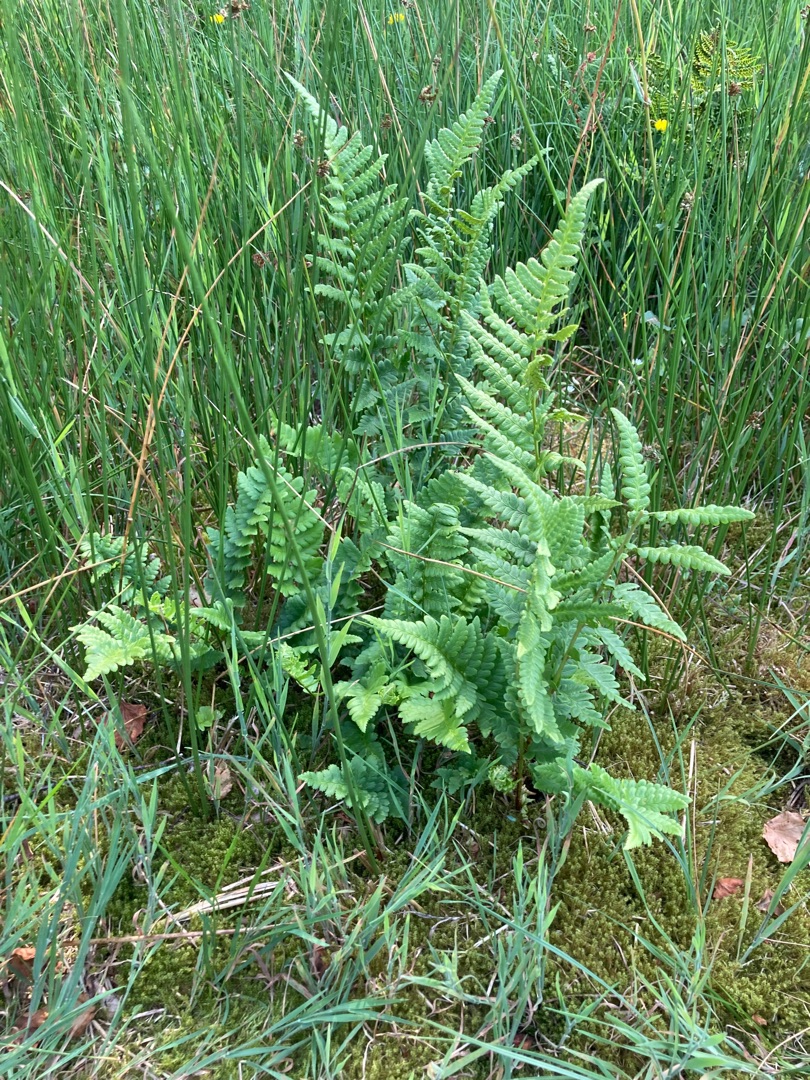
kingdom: Plantae
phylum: Tracheophyta
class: Polypodiopsida
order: Polypodiales
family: Dryopteridaceae
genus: Dryopteris
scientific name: Dryopteris cristata
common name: Butfinnet mangeløv
